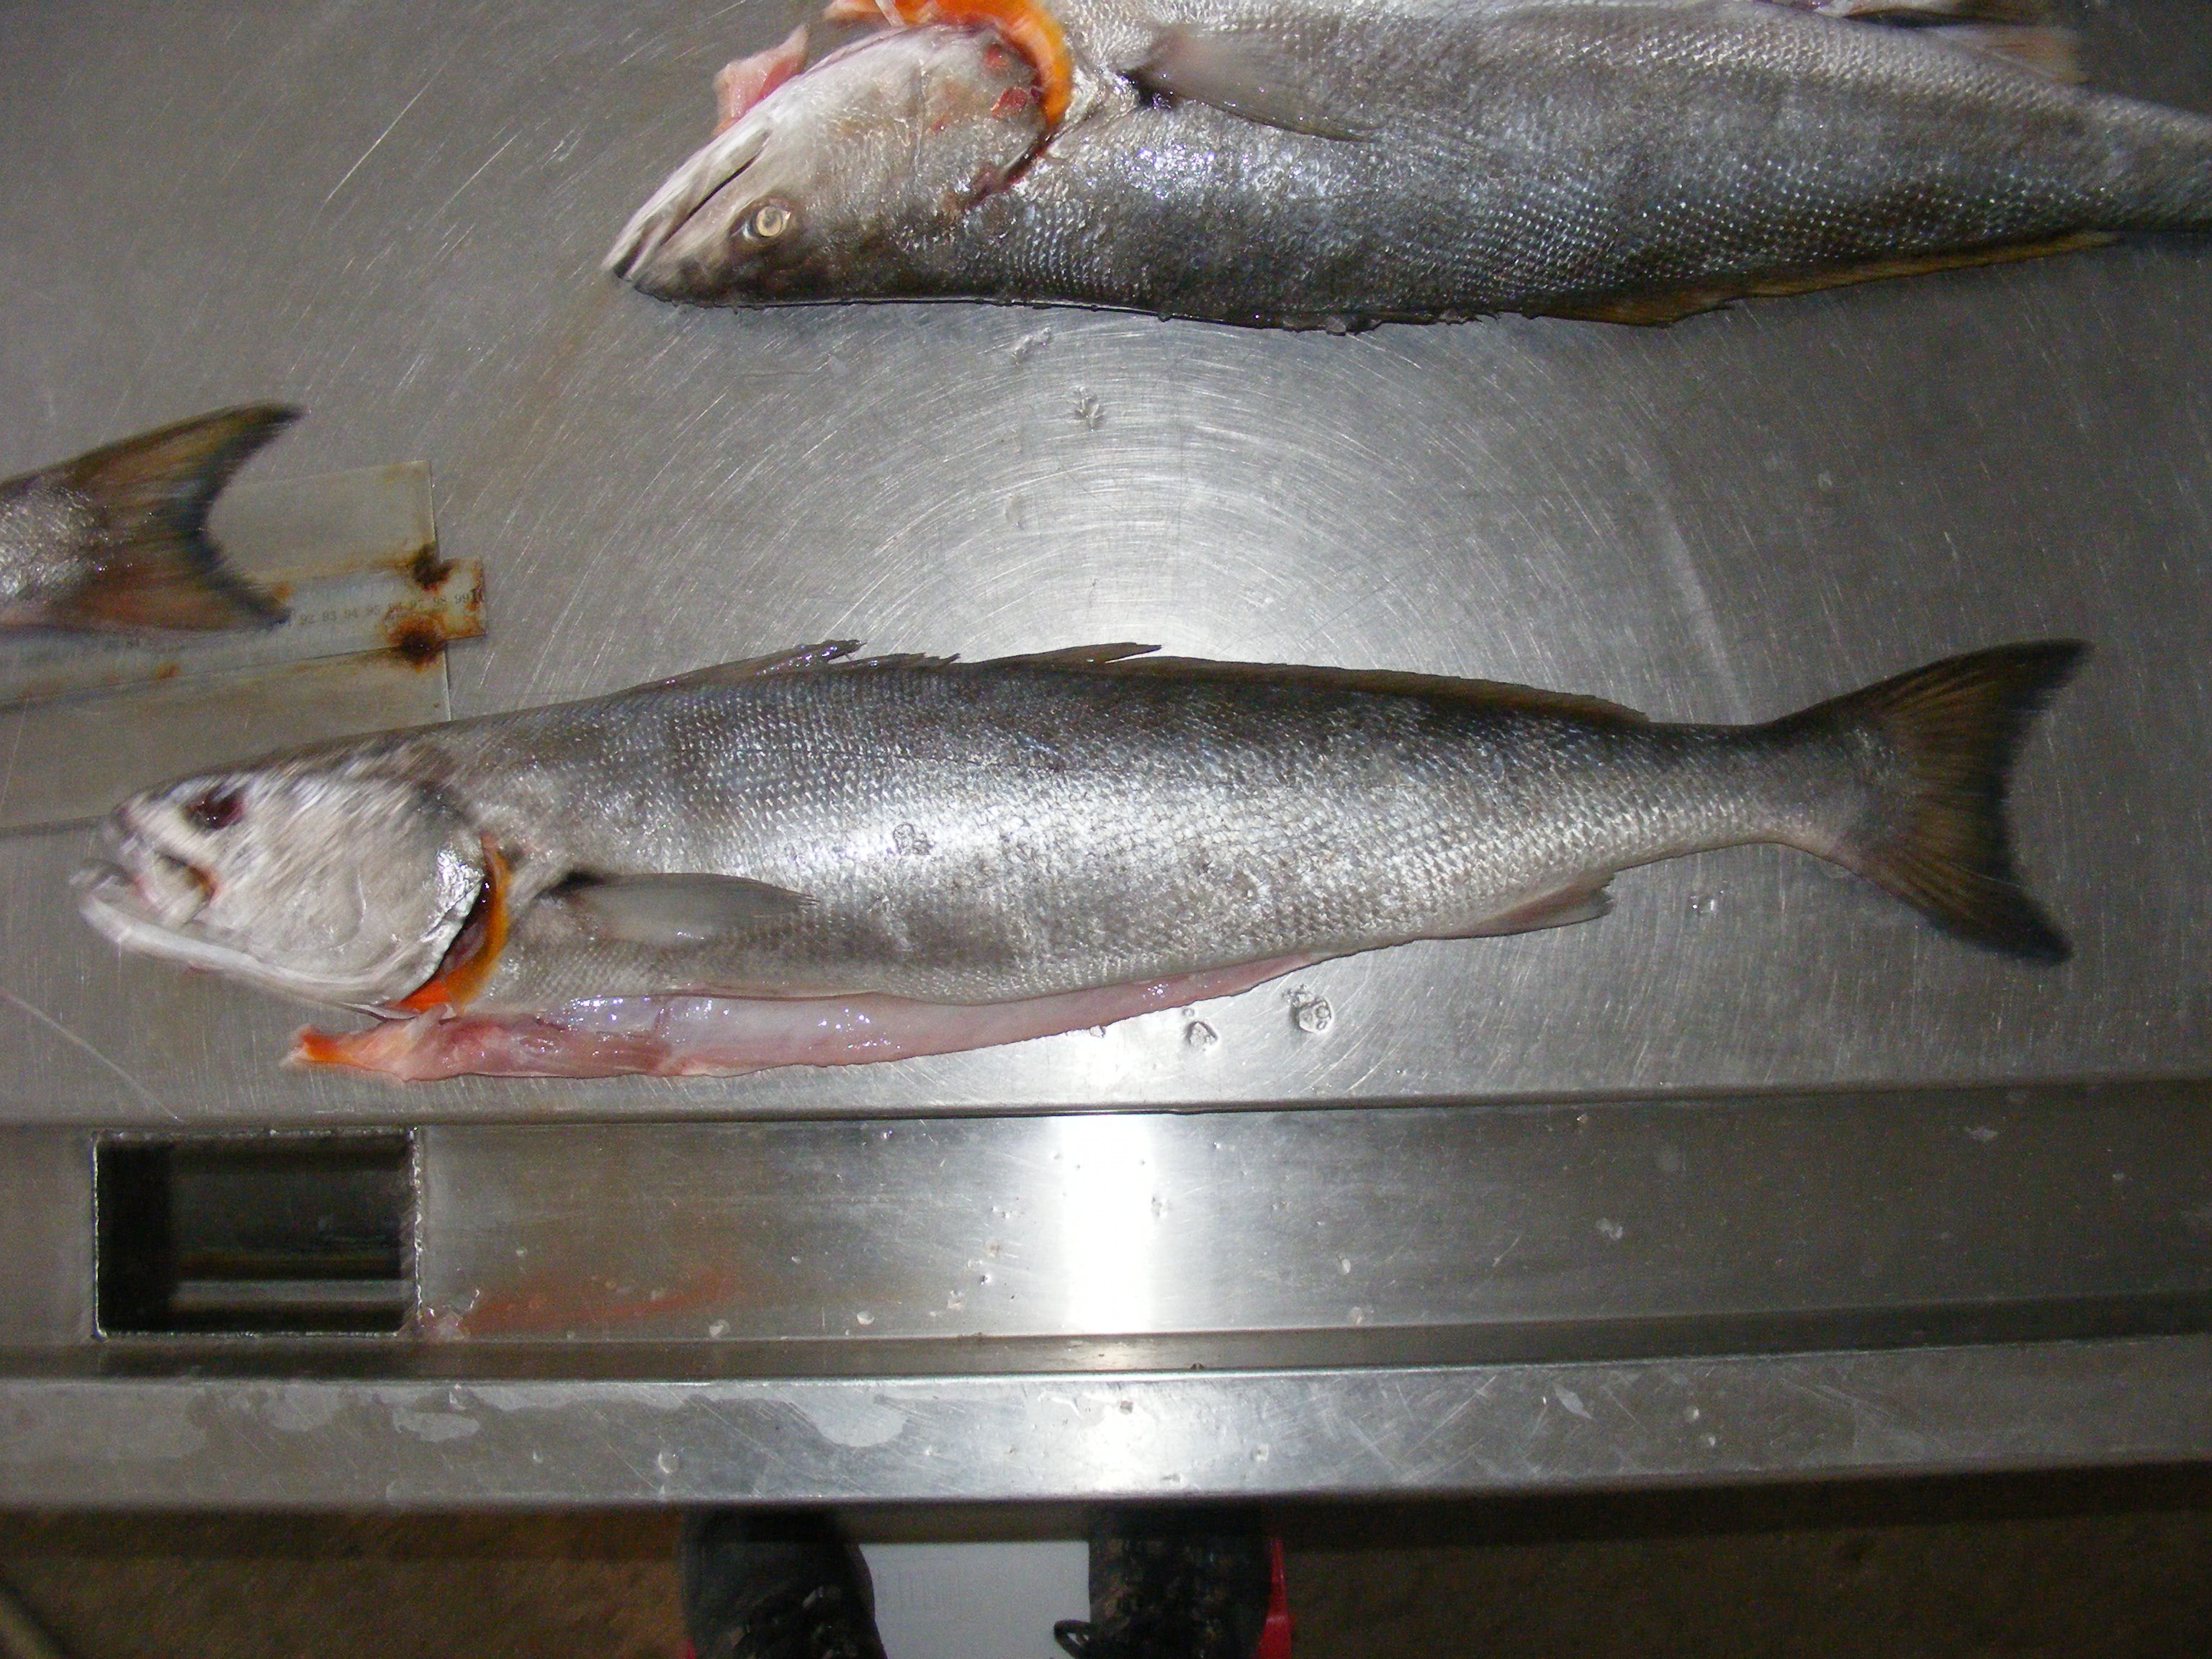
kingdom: Animalia
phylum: Chordata
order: Perciformes
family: Sciaenidae
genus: Atractoscion
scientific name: Atractoscion aequidens
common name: Geelbeck croaker
